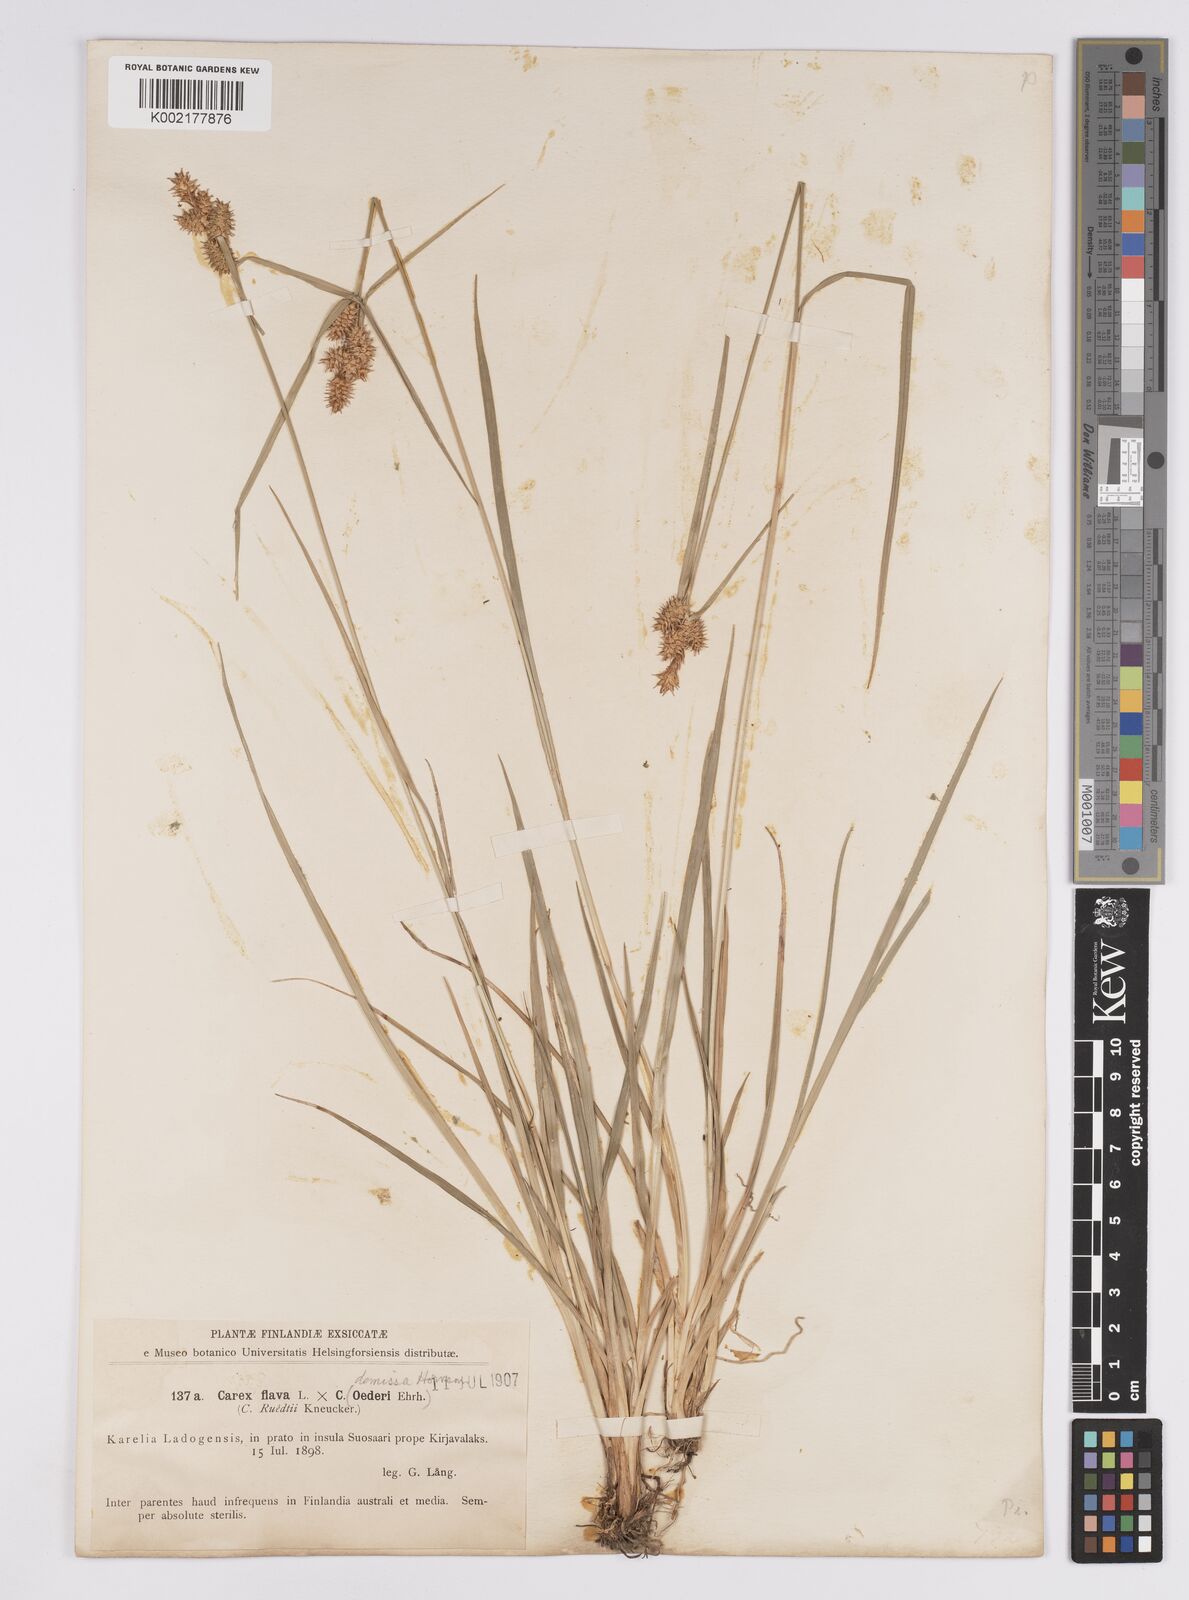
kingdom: Plantae
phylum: Tracheophyta
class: Liliopsida
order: Poales
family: Cyperaceae
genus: Carex
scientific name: Carex flava
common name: Large yellow-sedge
